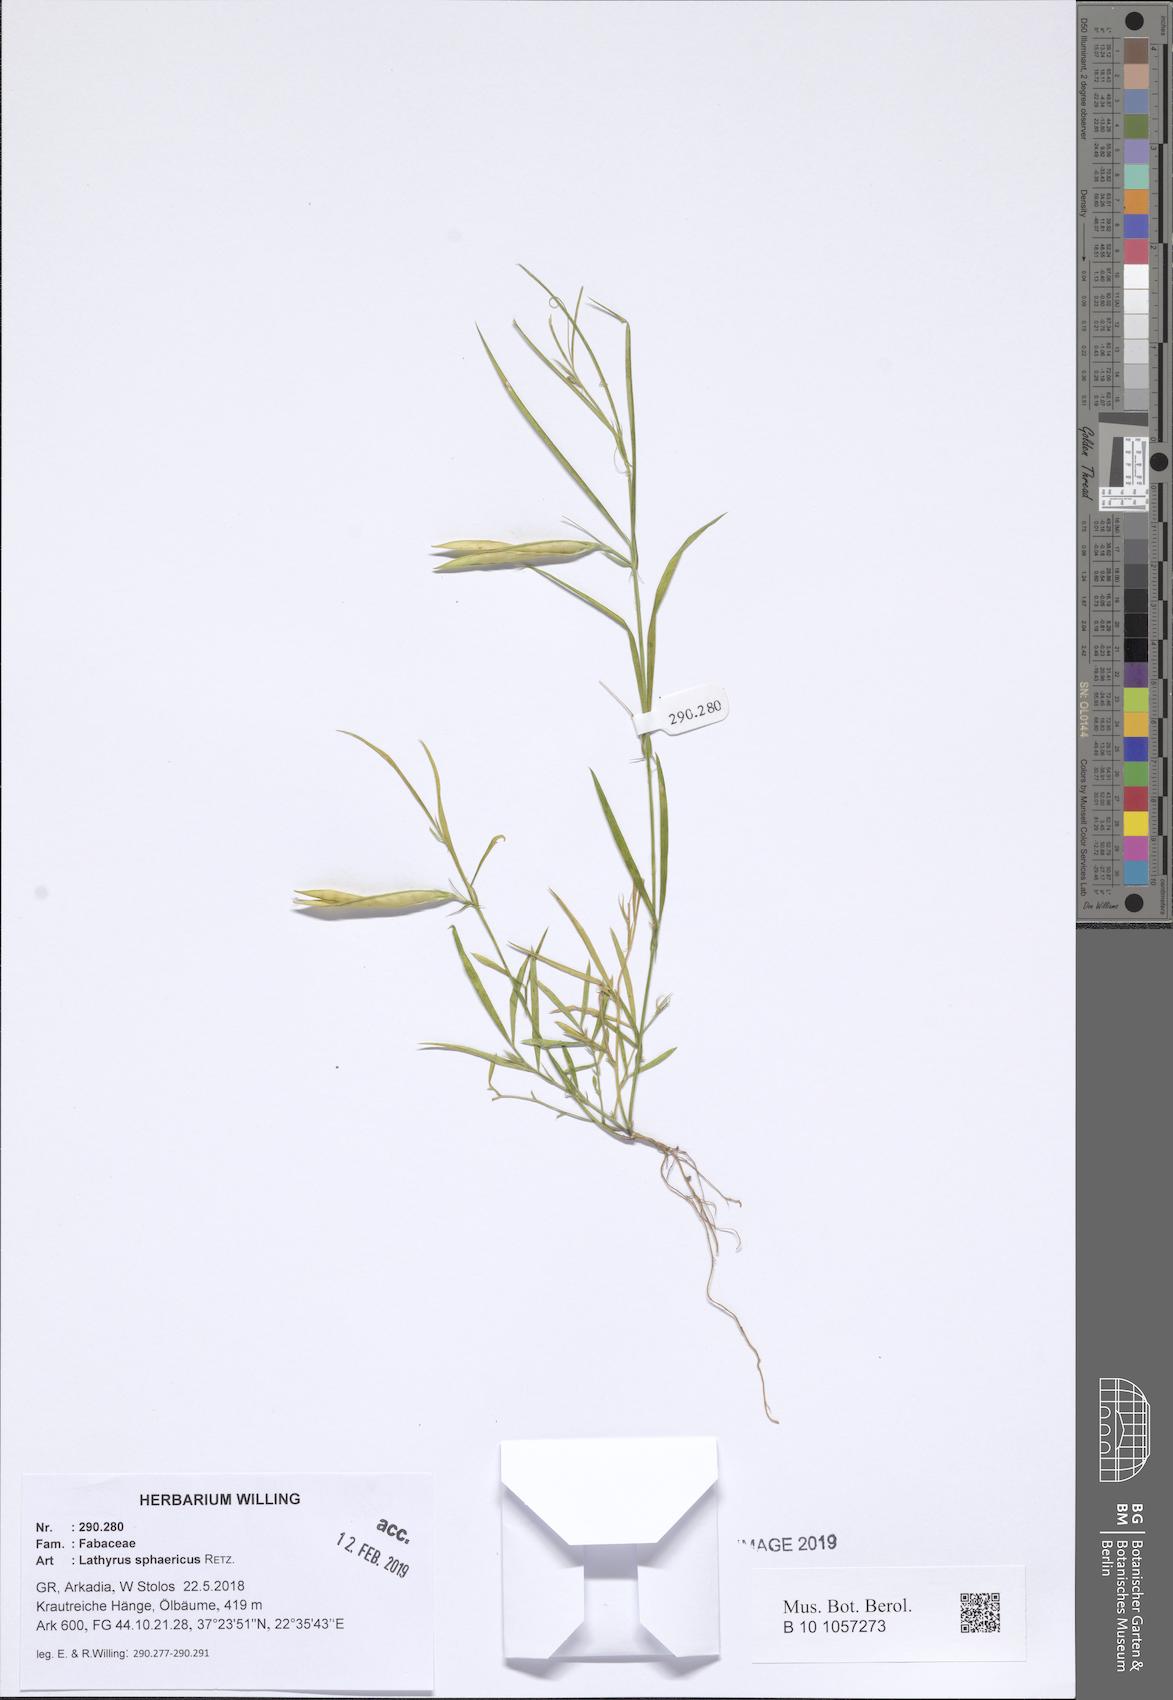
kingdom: Plantae
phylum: Tracheophyta
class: Magnoliopsida
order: Fabales
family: Fabaceae
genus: Lathyrus
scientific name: Lathyrus sphaericus
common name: Grass pea
